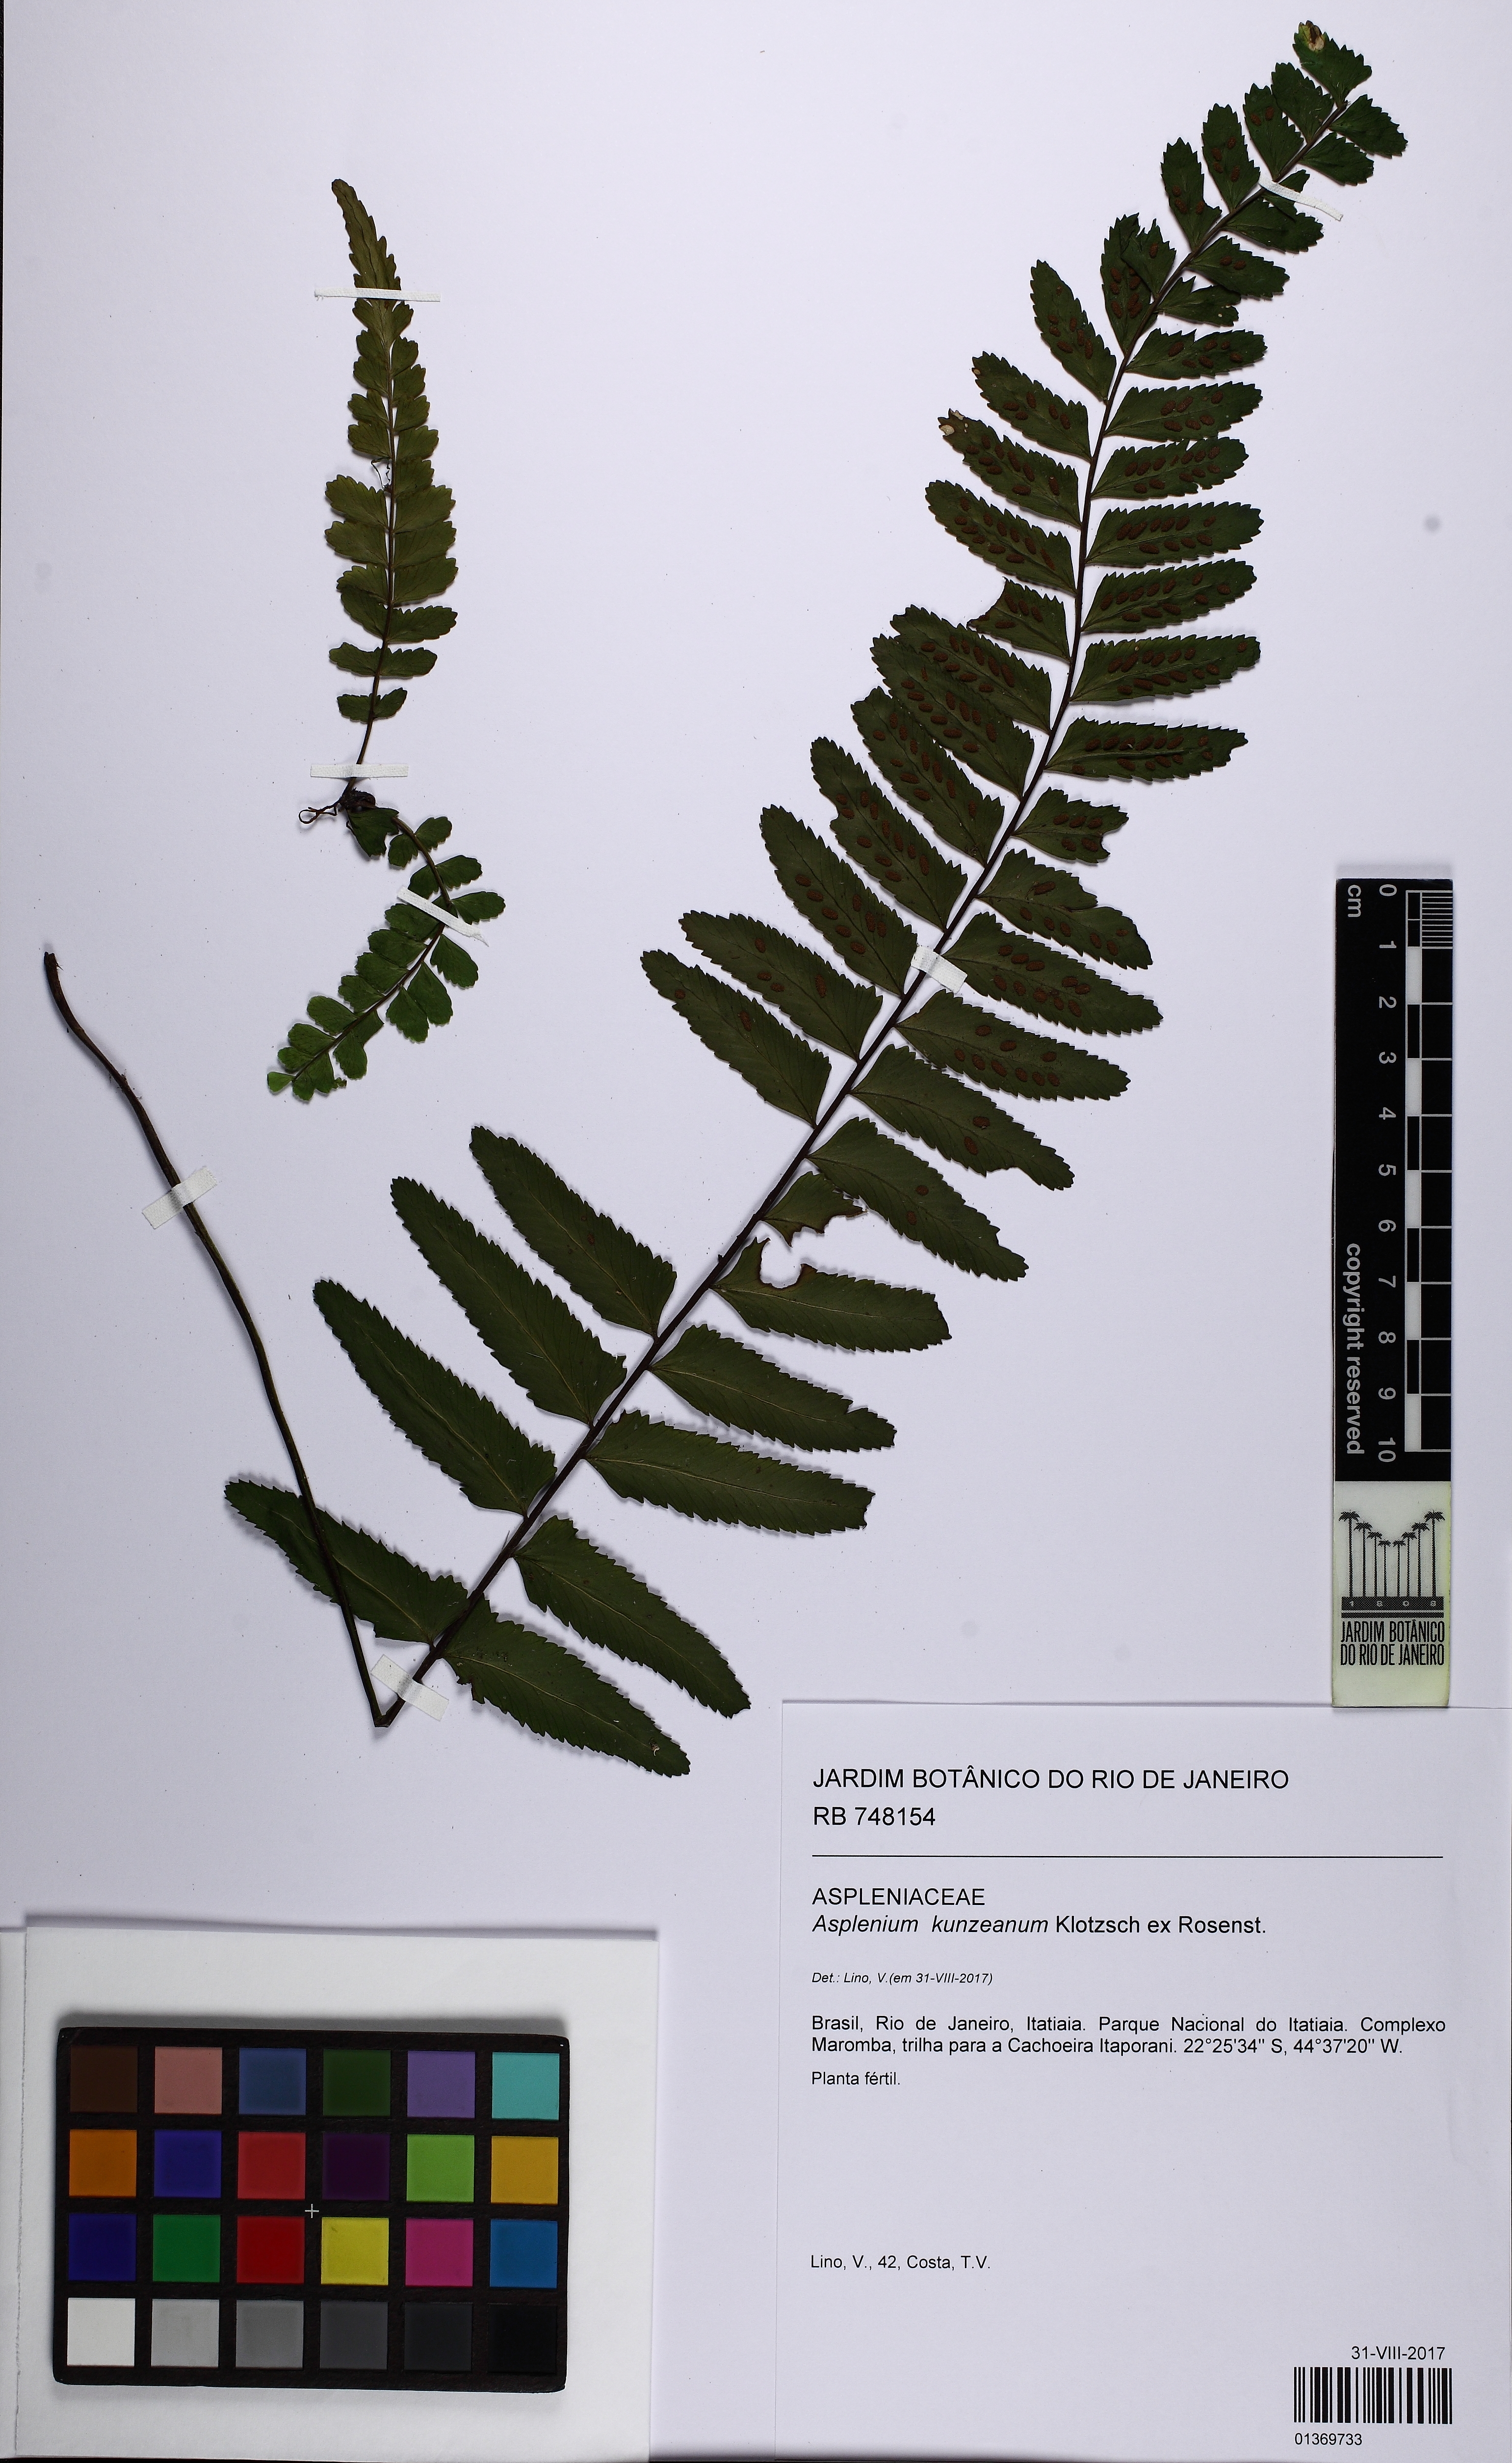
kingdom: Plantae
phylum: Tracheophyta
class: Polypodiopsida
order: Polypodiales
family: Aspleniaceae
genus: Asplenium
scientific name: Asplenium kunzeanum
